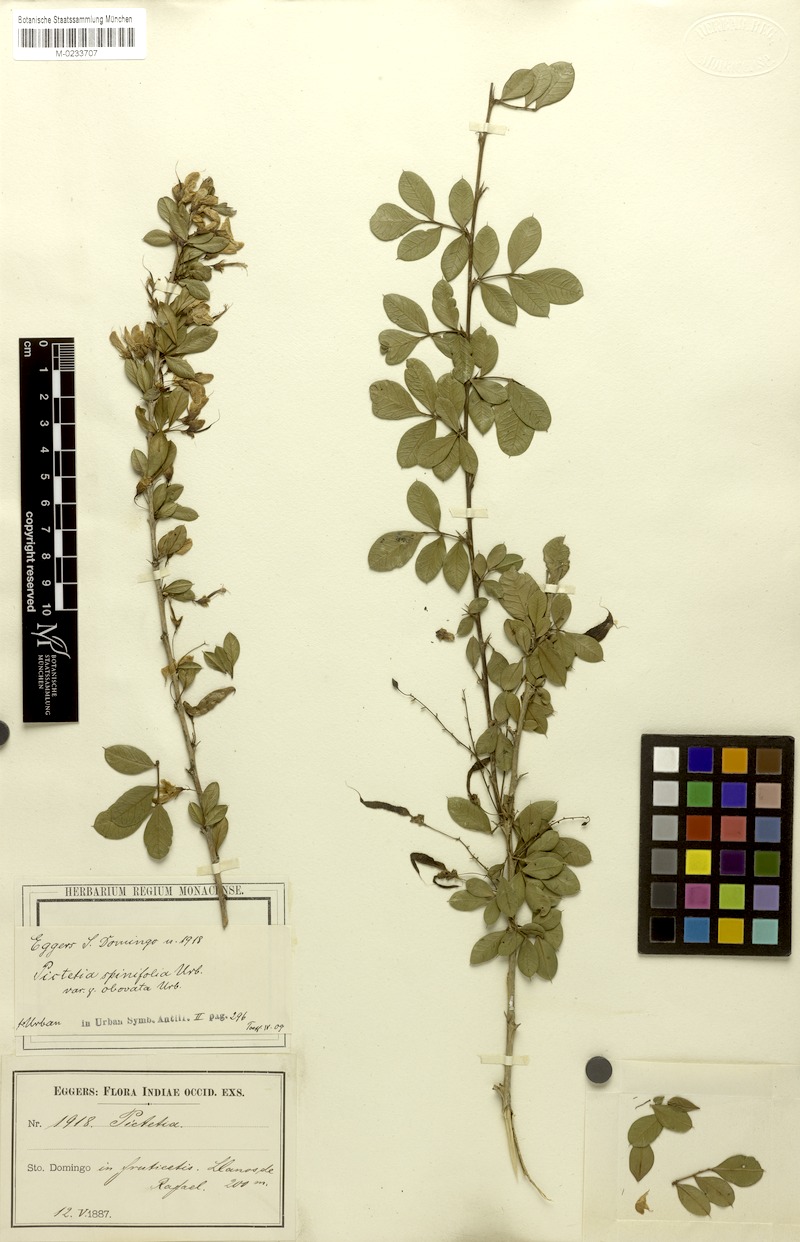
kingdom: Plantae
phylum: Tracheophyta
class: Magnoliopsida
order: Fabales
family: Fabaceae
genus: Pictetia
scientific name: Pictetia sulcata
